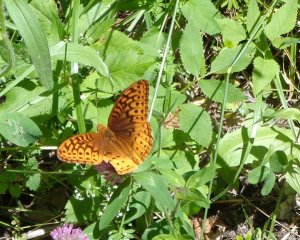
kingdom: Animalia
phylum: Arthropoda
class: Insecta
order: Lepidoptera
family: Nymphalidae
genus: Speyeria
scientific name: Speyeria cybele
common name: Great Spangled Fritillary
